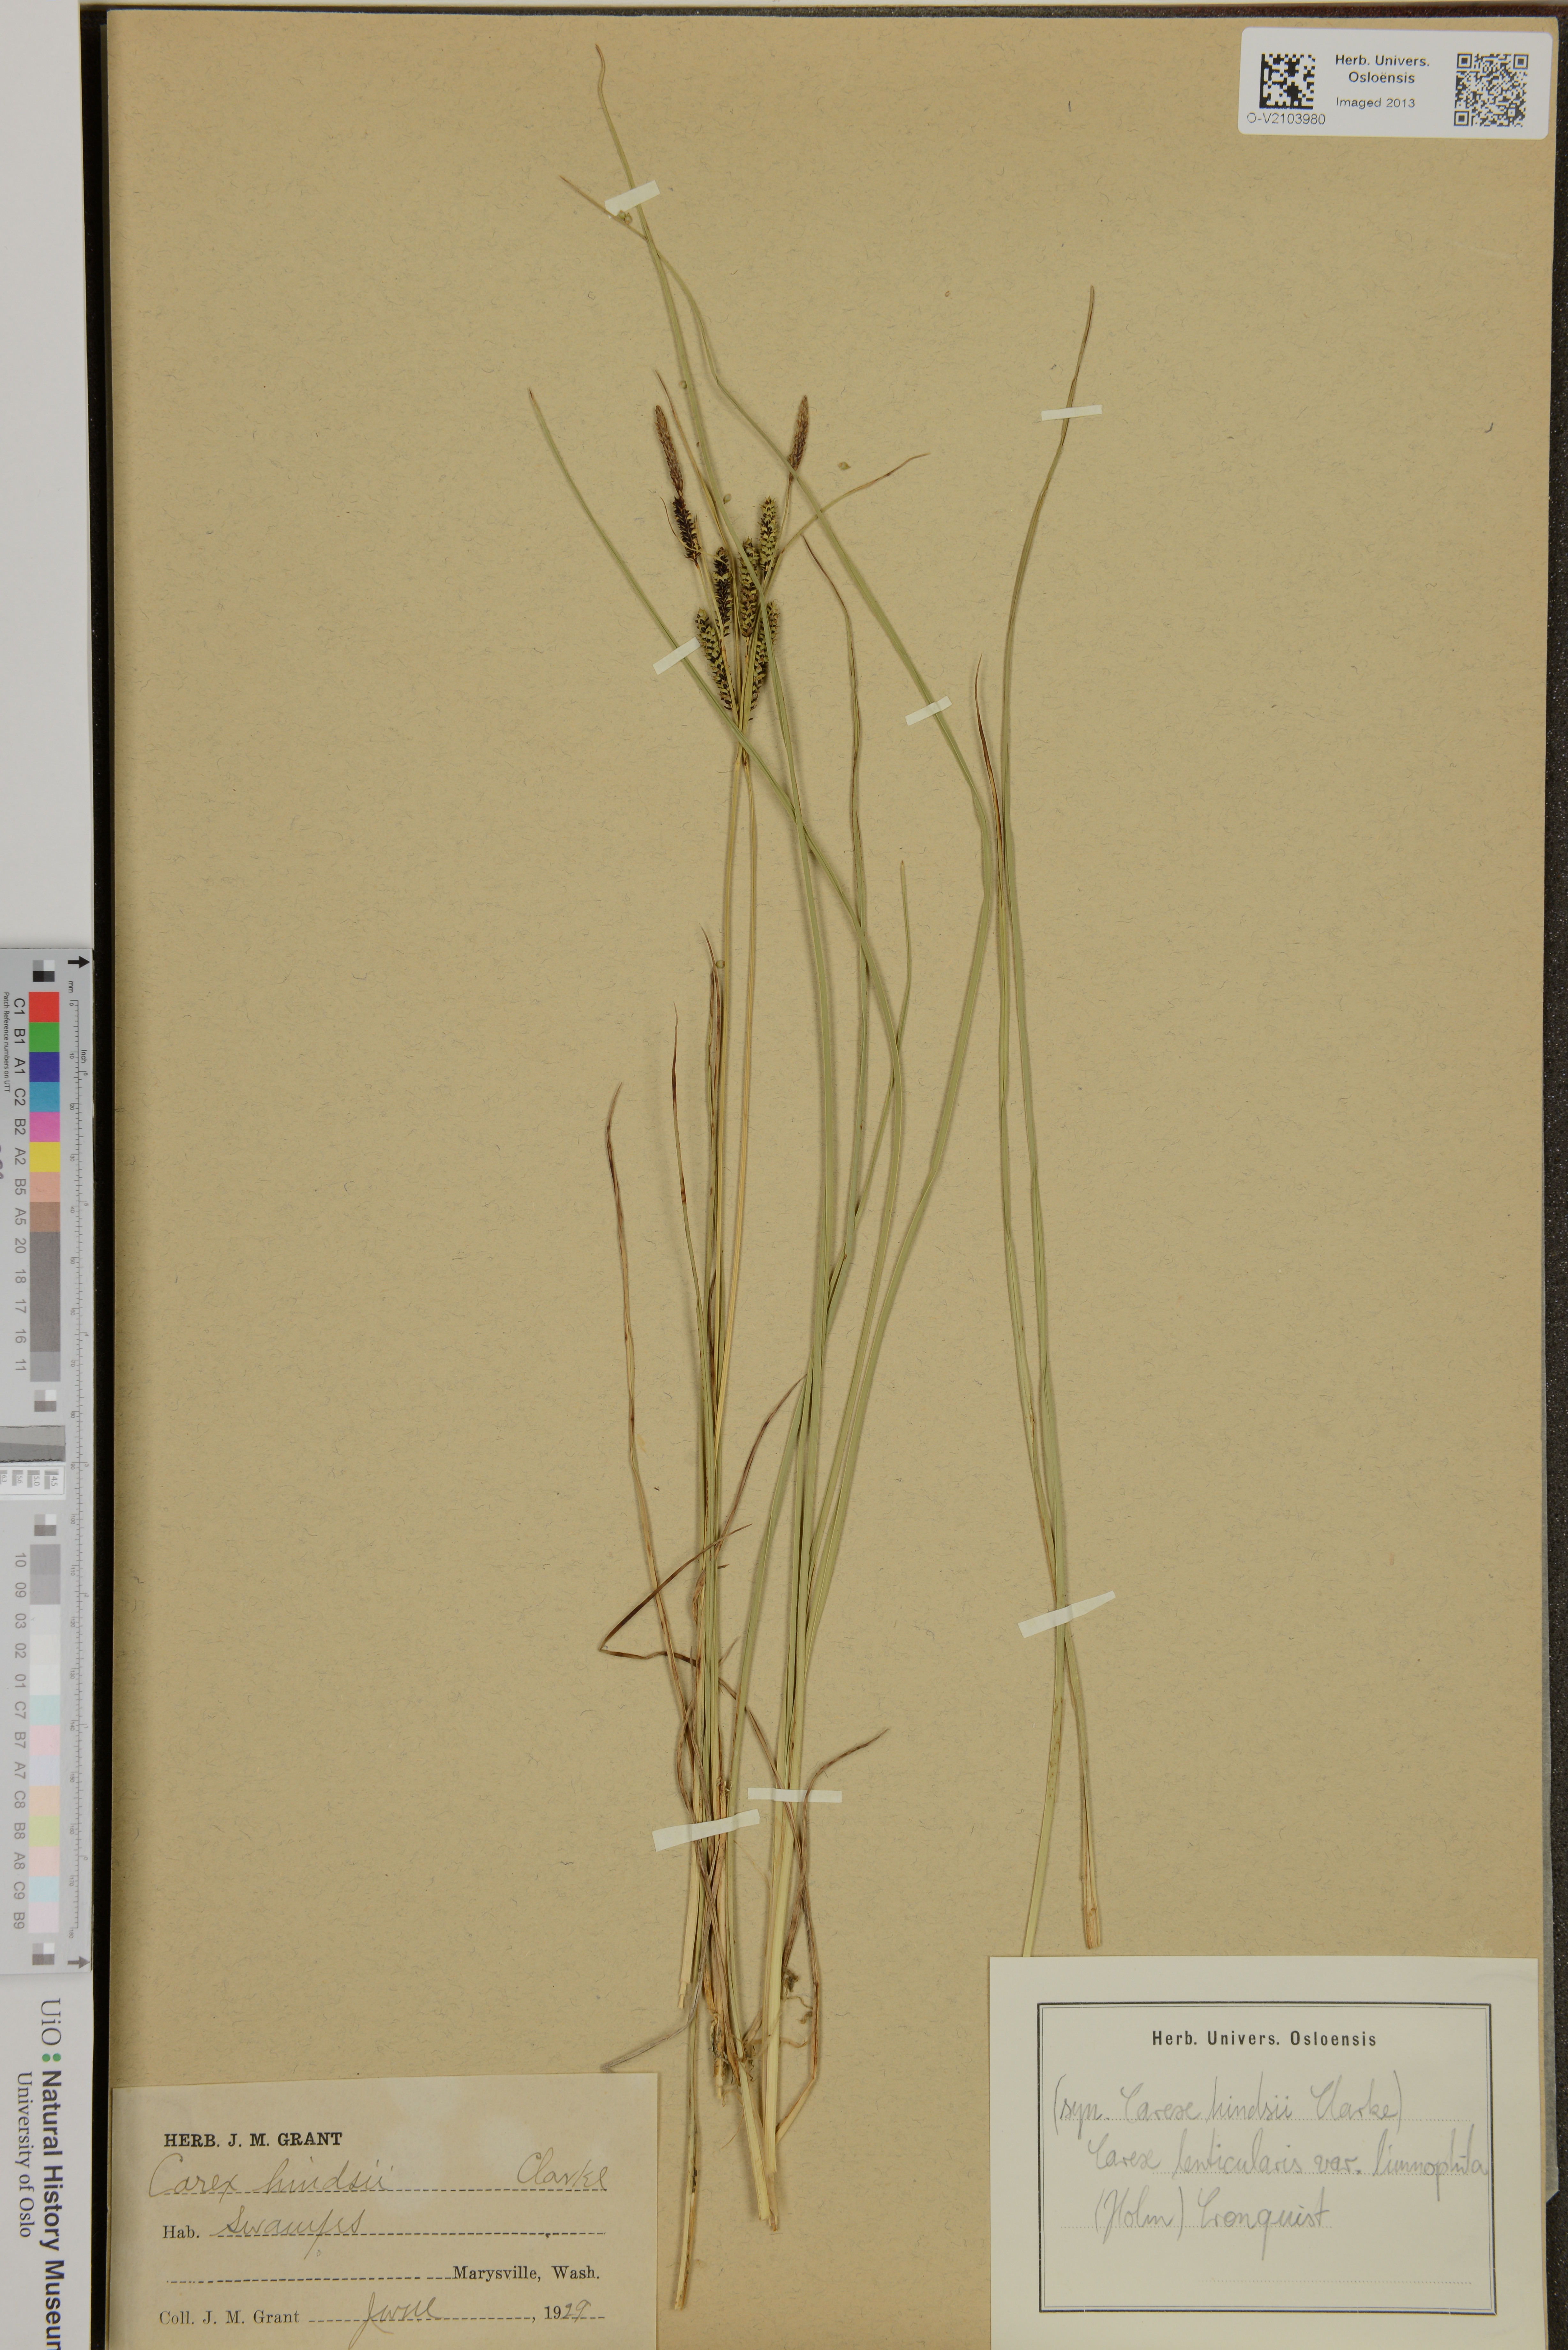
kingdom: Plantae
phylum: Tracheophyta
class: Liliopsida
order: Poales
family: Cyperaceae
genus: Carex
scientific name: Carex lenticularis
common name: Lakeshore sedge
